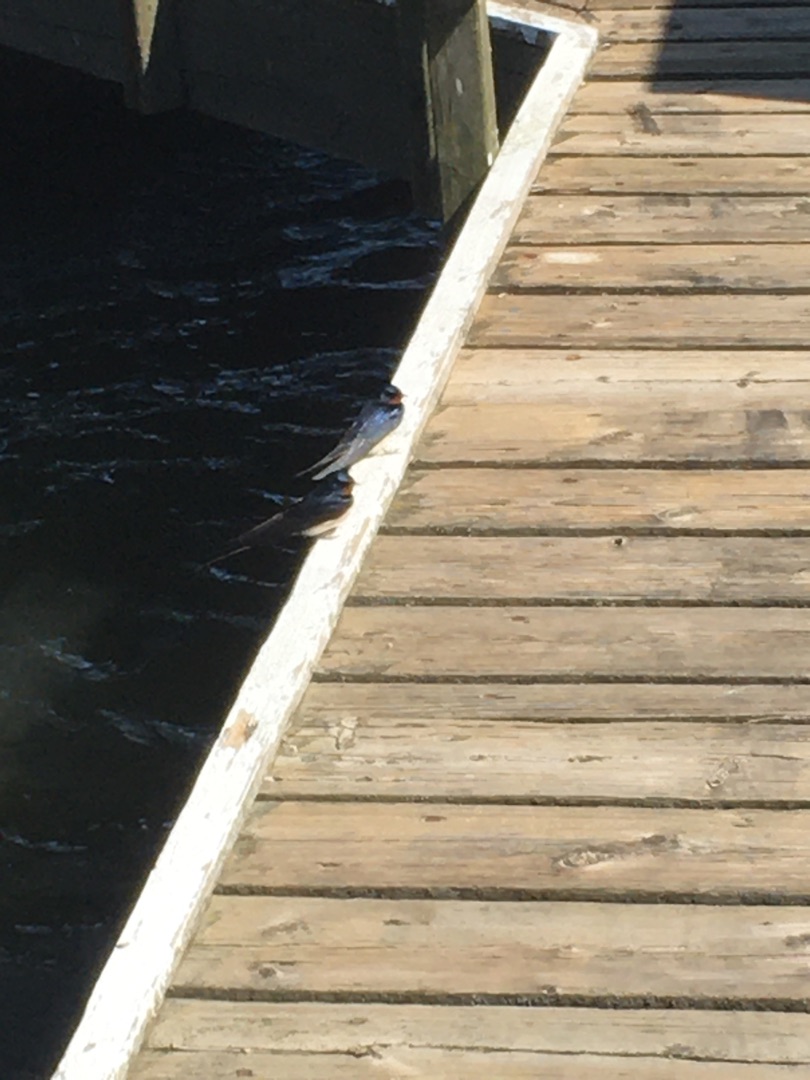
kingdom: Animalia
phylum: Chordata
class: Aves
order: Passeriformes
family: Hirundinidae
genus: Hirundo
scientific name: Hirundo rustica
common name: Landsvale
